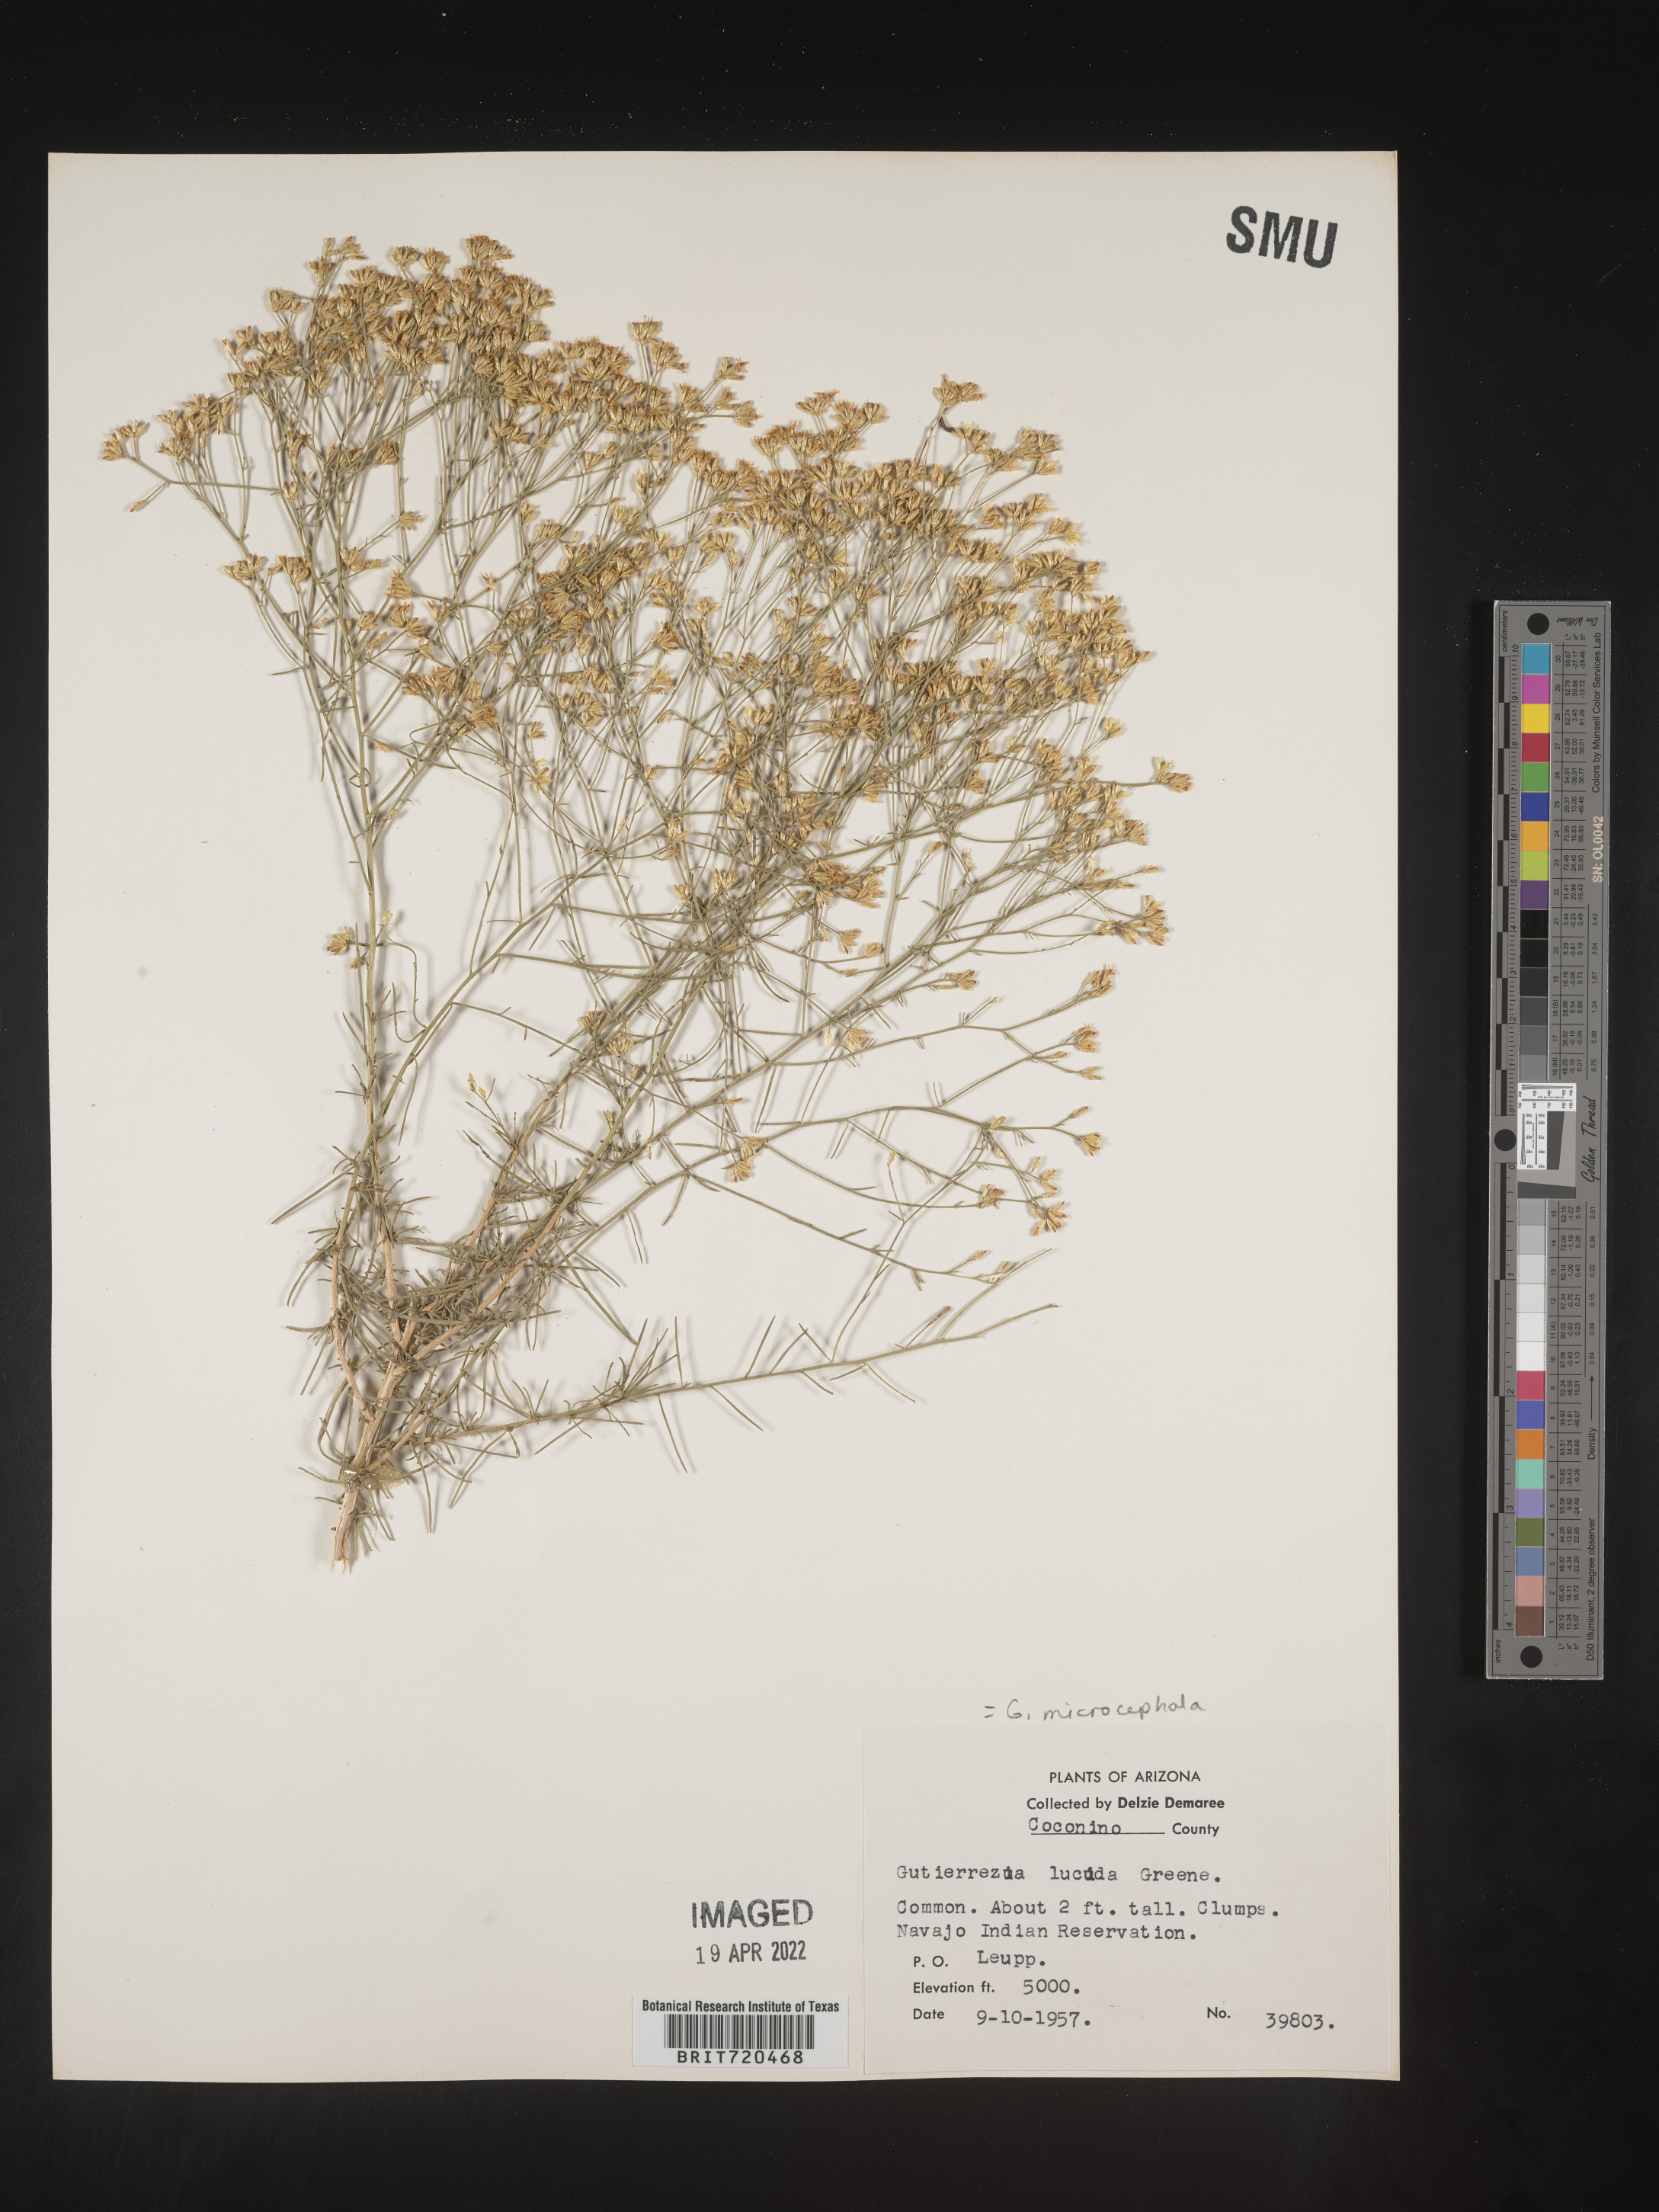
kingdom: Plantae
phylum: Tracheophyta
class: Magnoliopsida
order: Asterales
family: Asteraceae
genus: Gutierrezia
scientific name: Gutierrezia microcephala
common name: Thread snakeweed
